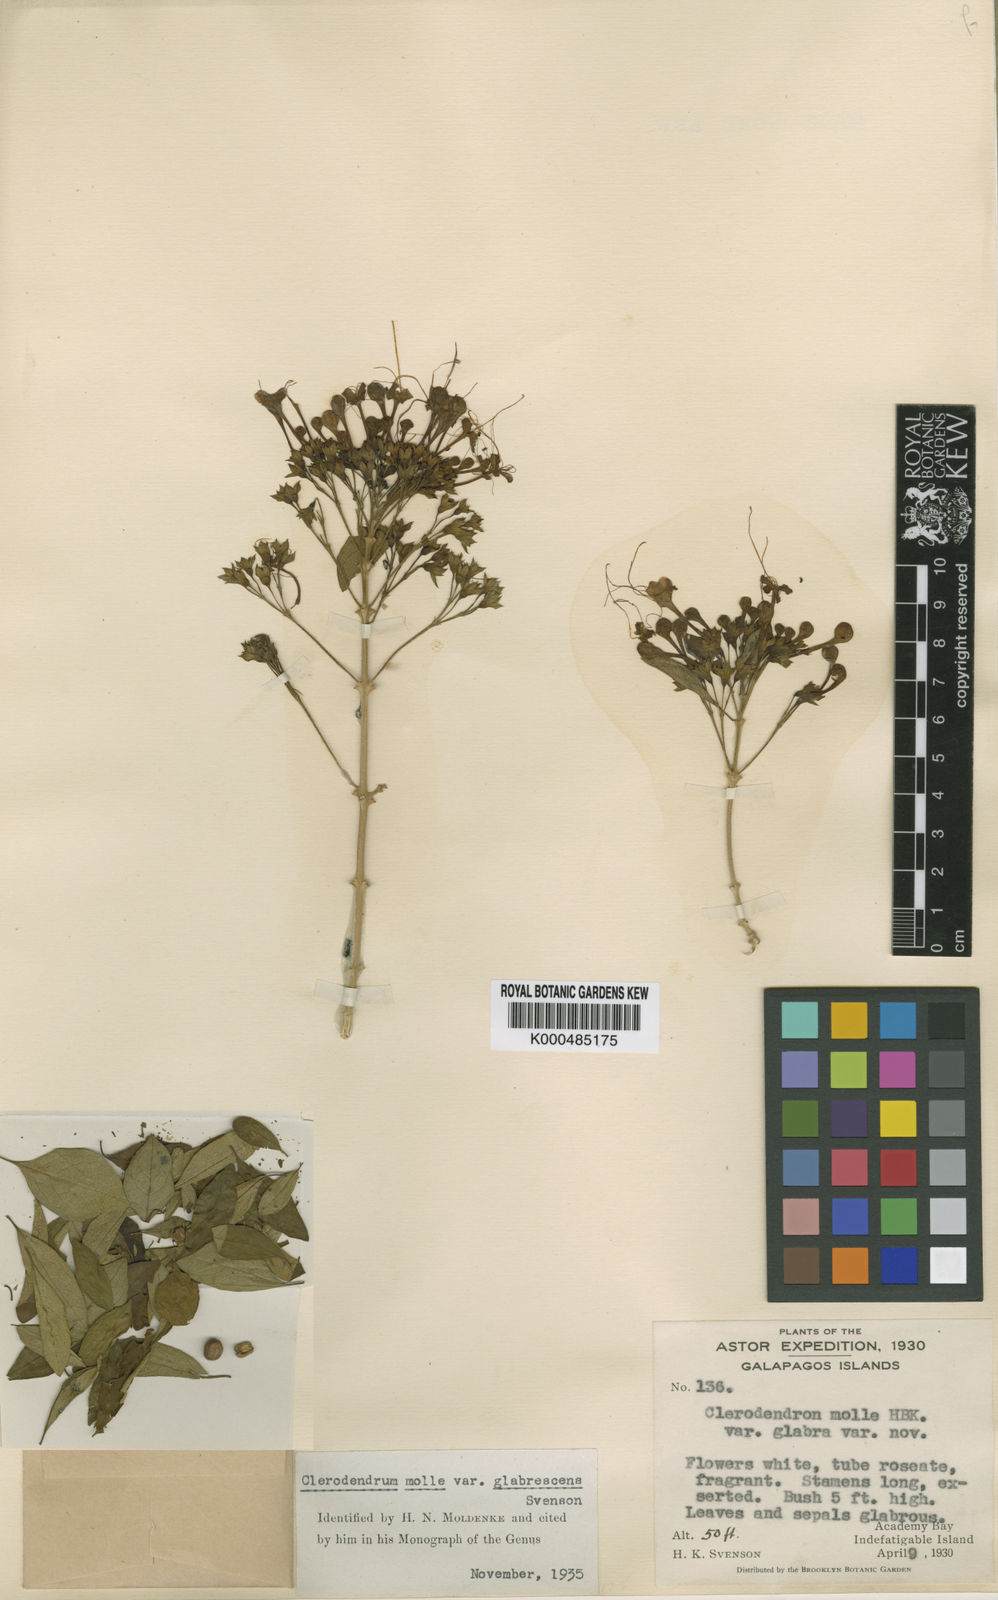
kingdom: Plantae
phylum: Tracheophyta
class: Magnoliopsida
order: Lamiales
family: Lamiaceae
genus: Volkameria
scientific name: Volkameria mollis
